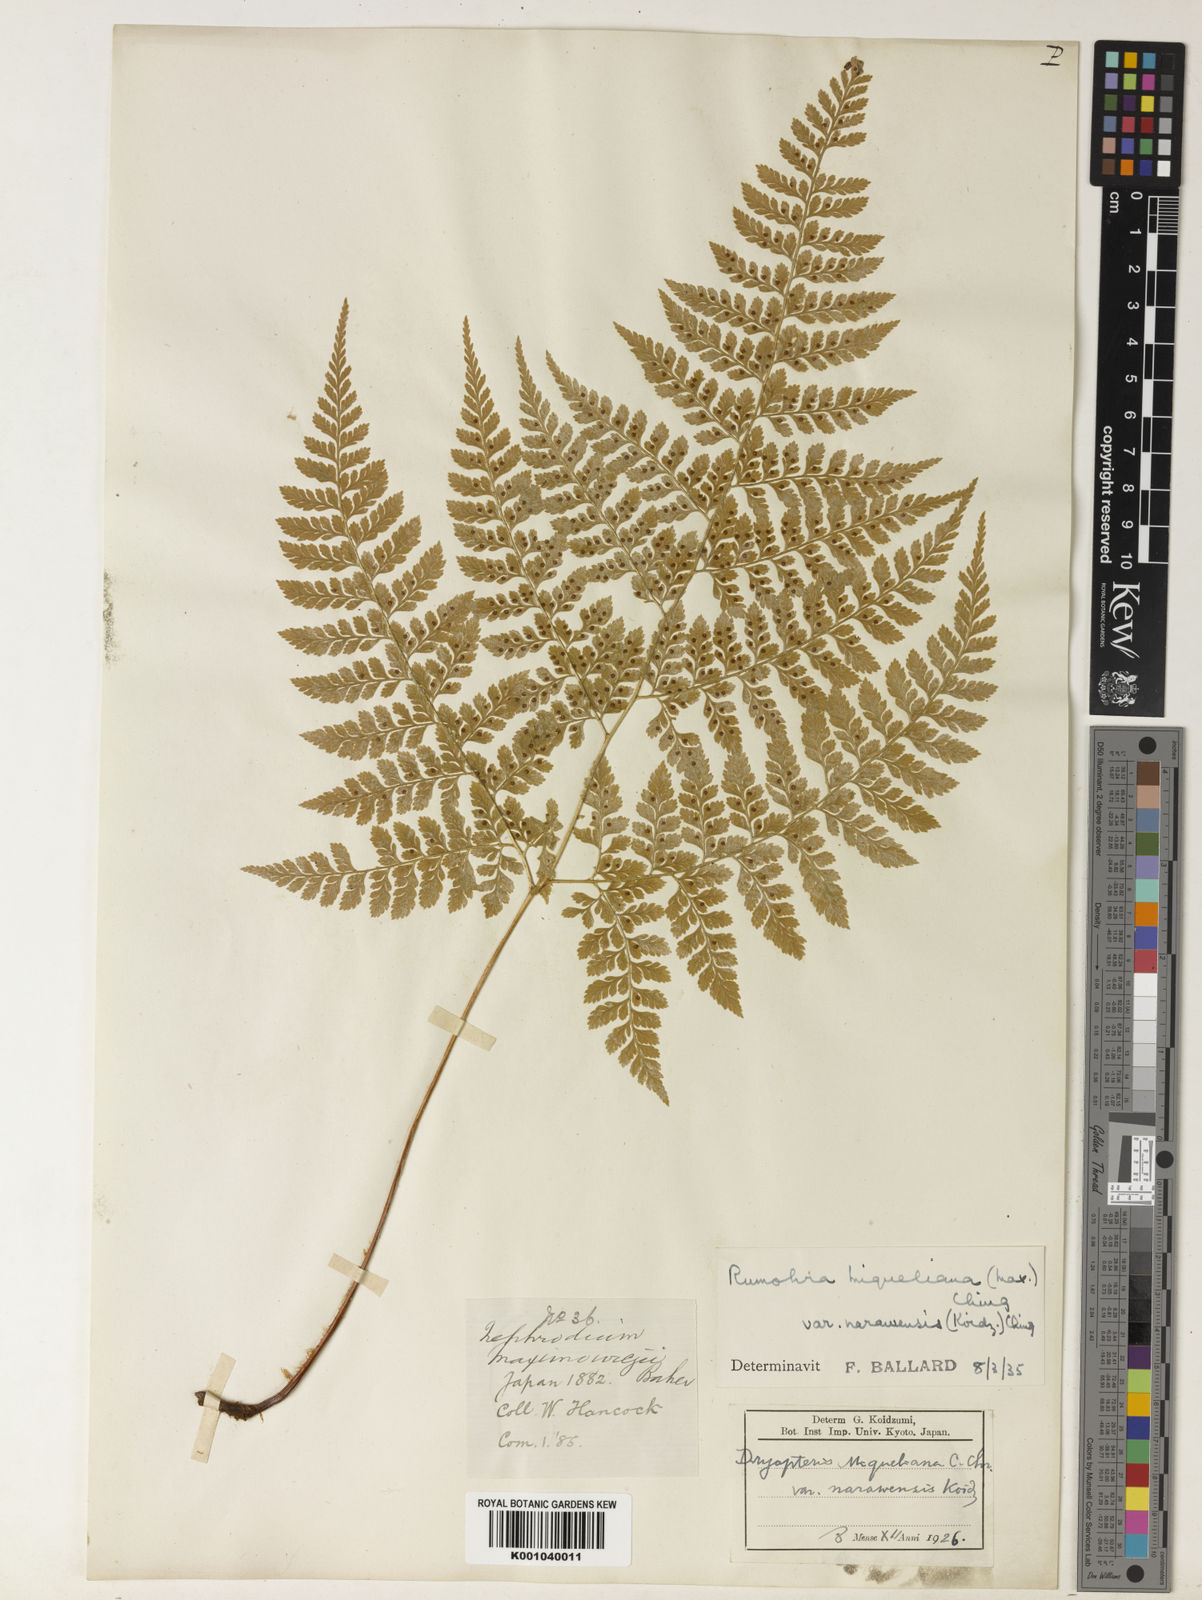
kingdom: Plantae
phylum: Tracheophyta
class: Polypodiopsida
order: Polypodiales
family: Dryopteridaceae
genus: Arachniodes
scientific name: Arachniodes miqueliana
